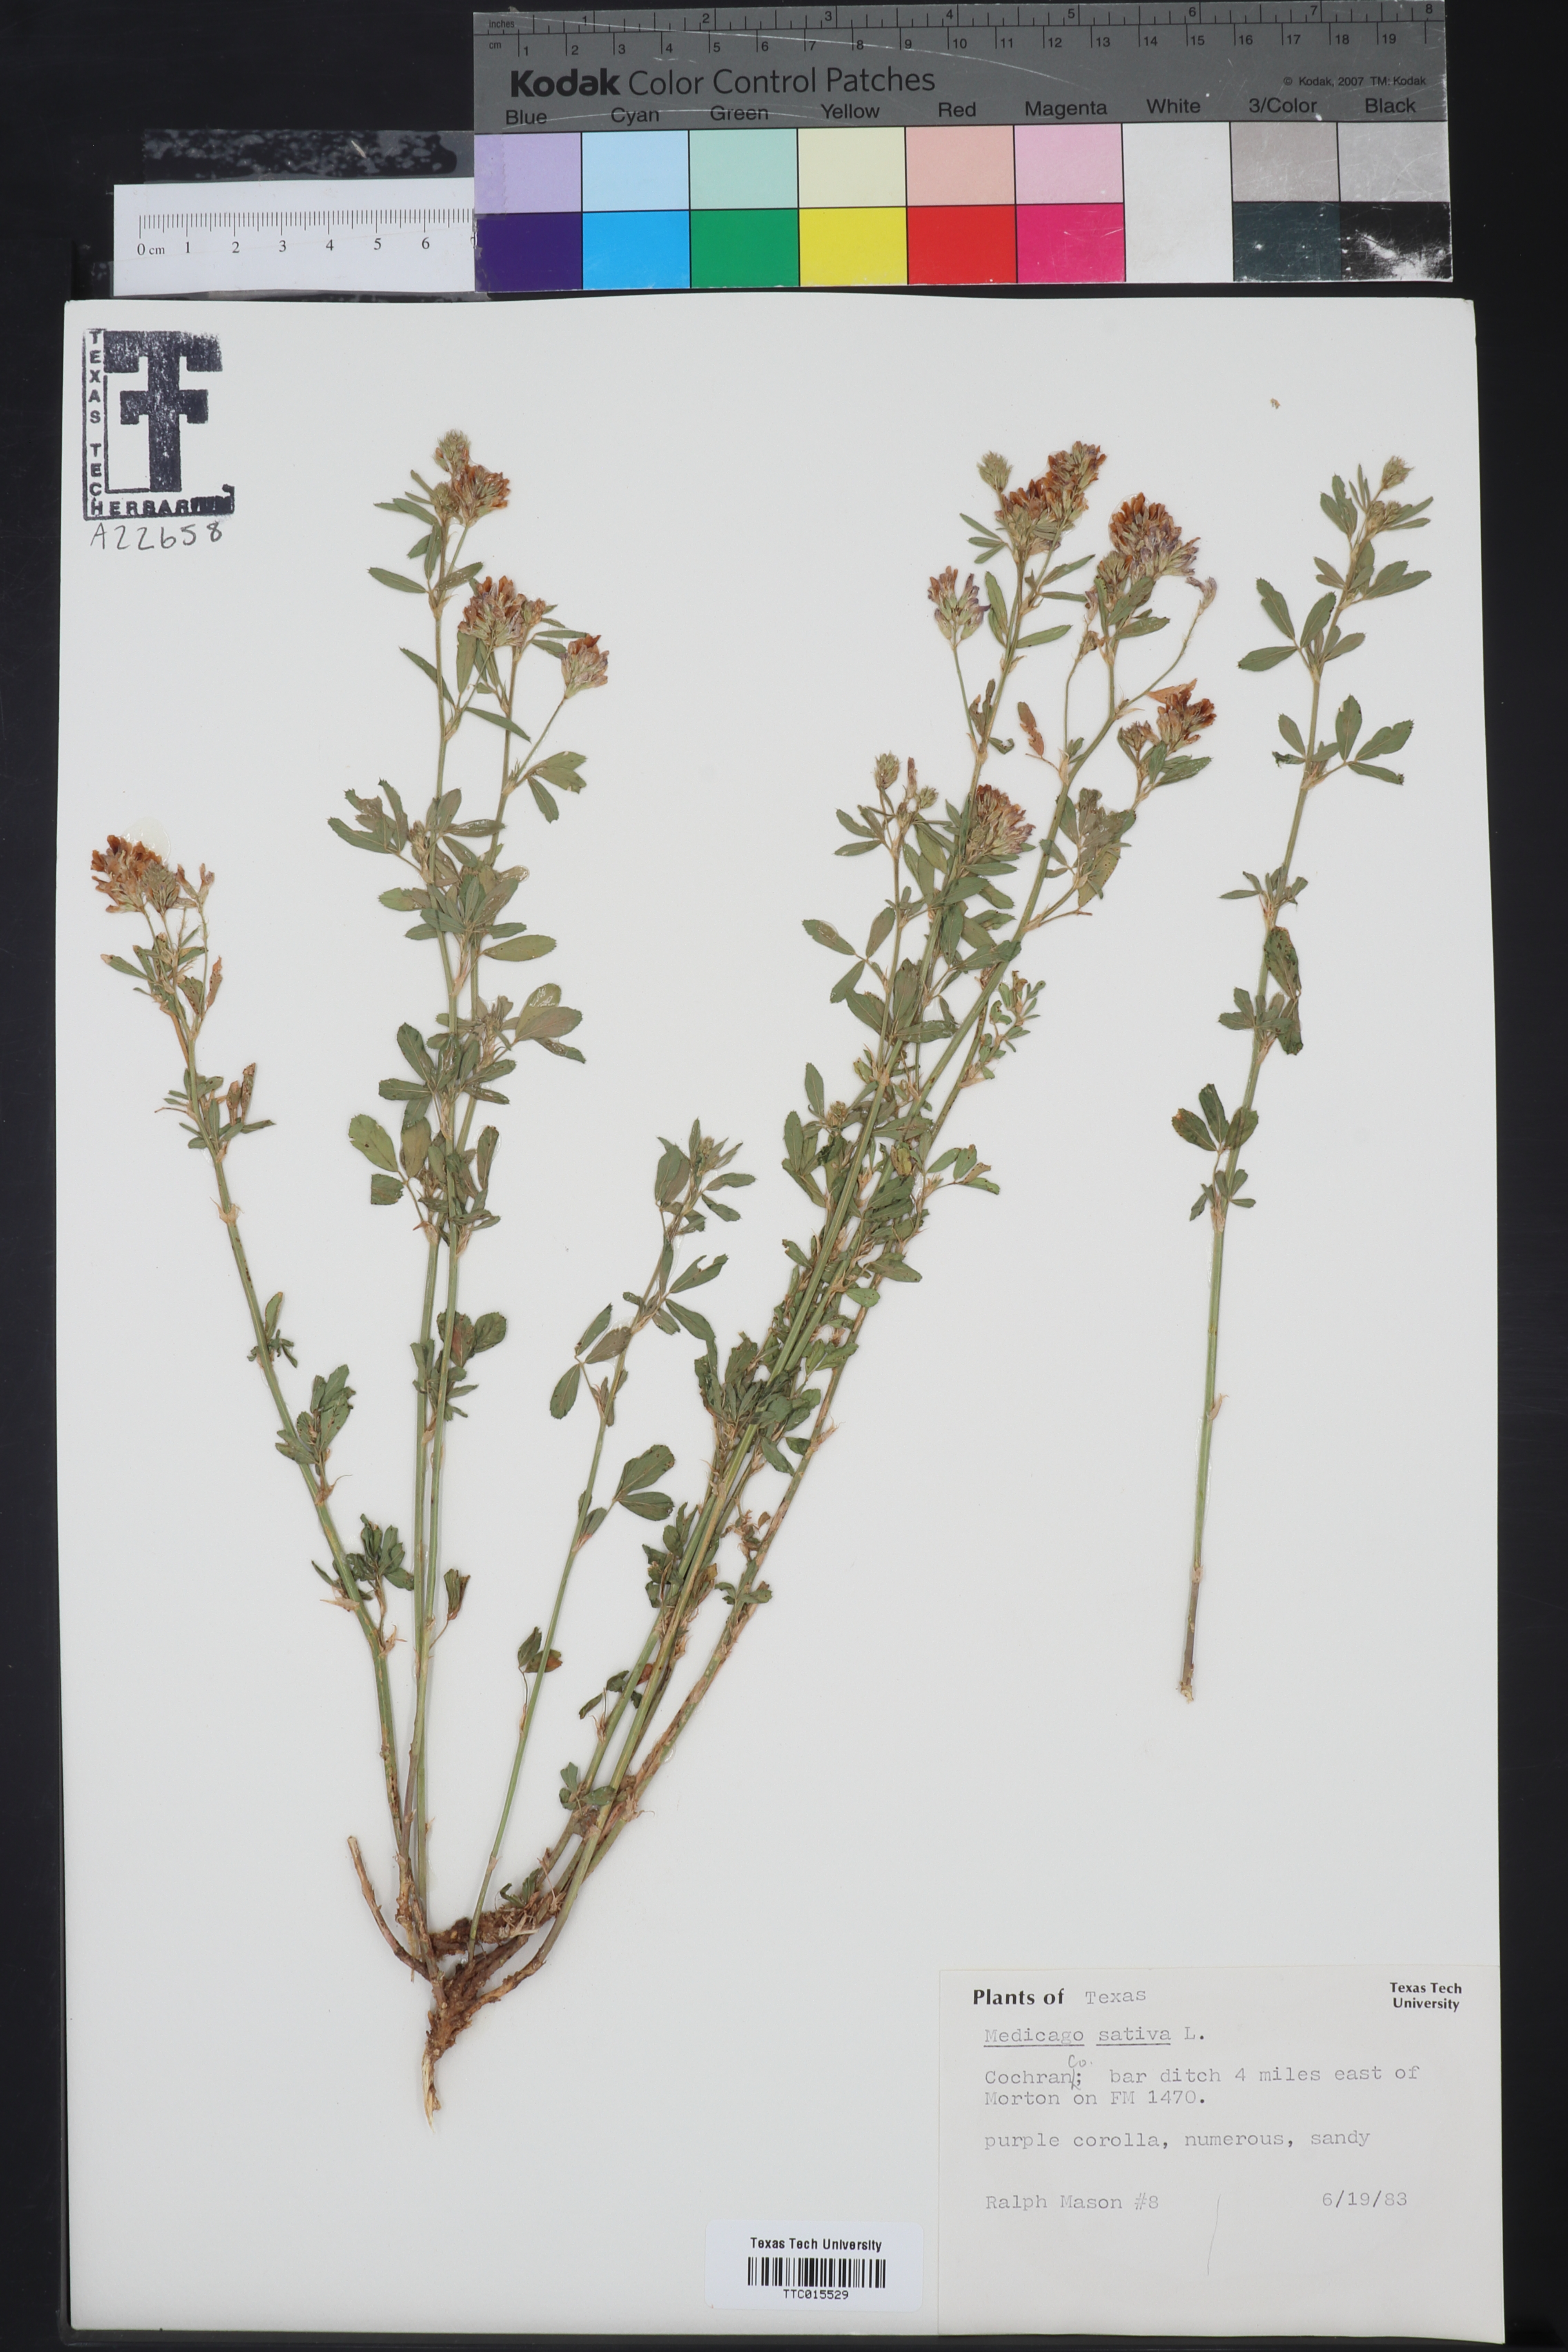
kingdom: Plantae
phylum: Tracheophyta
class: Magnoliopsida
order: Fabales
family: Fabaceae
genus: Medicago
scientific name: Medicago sativa
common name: Alfalfa
